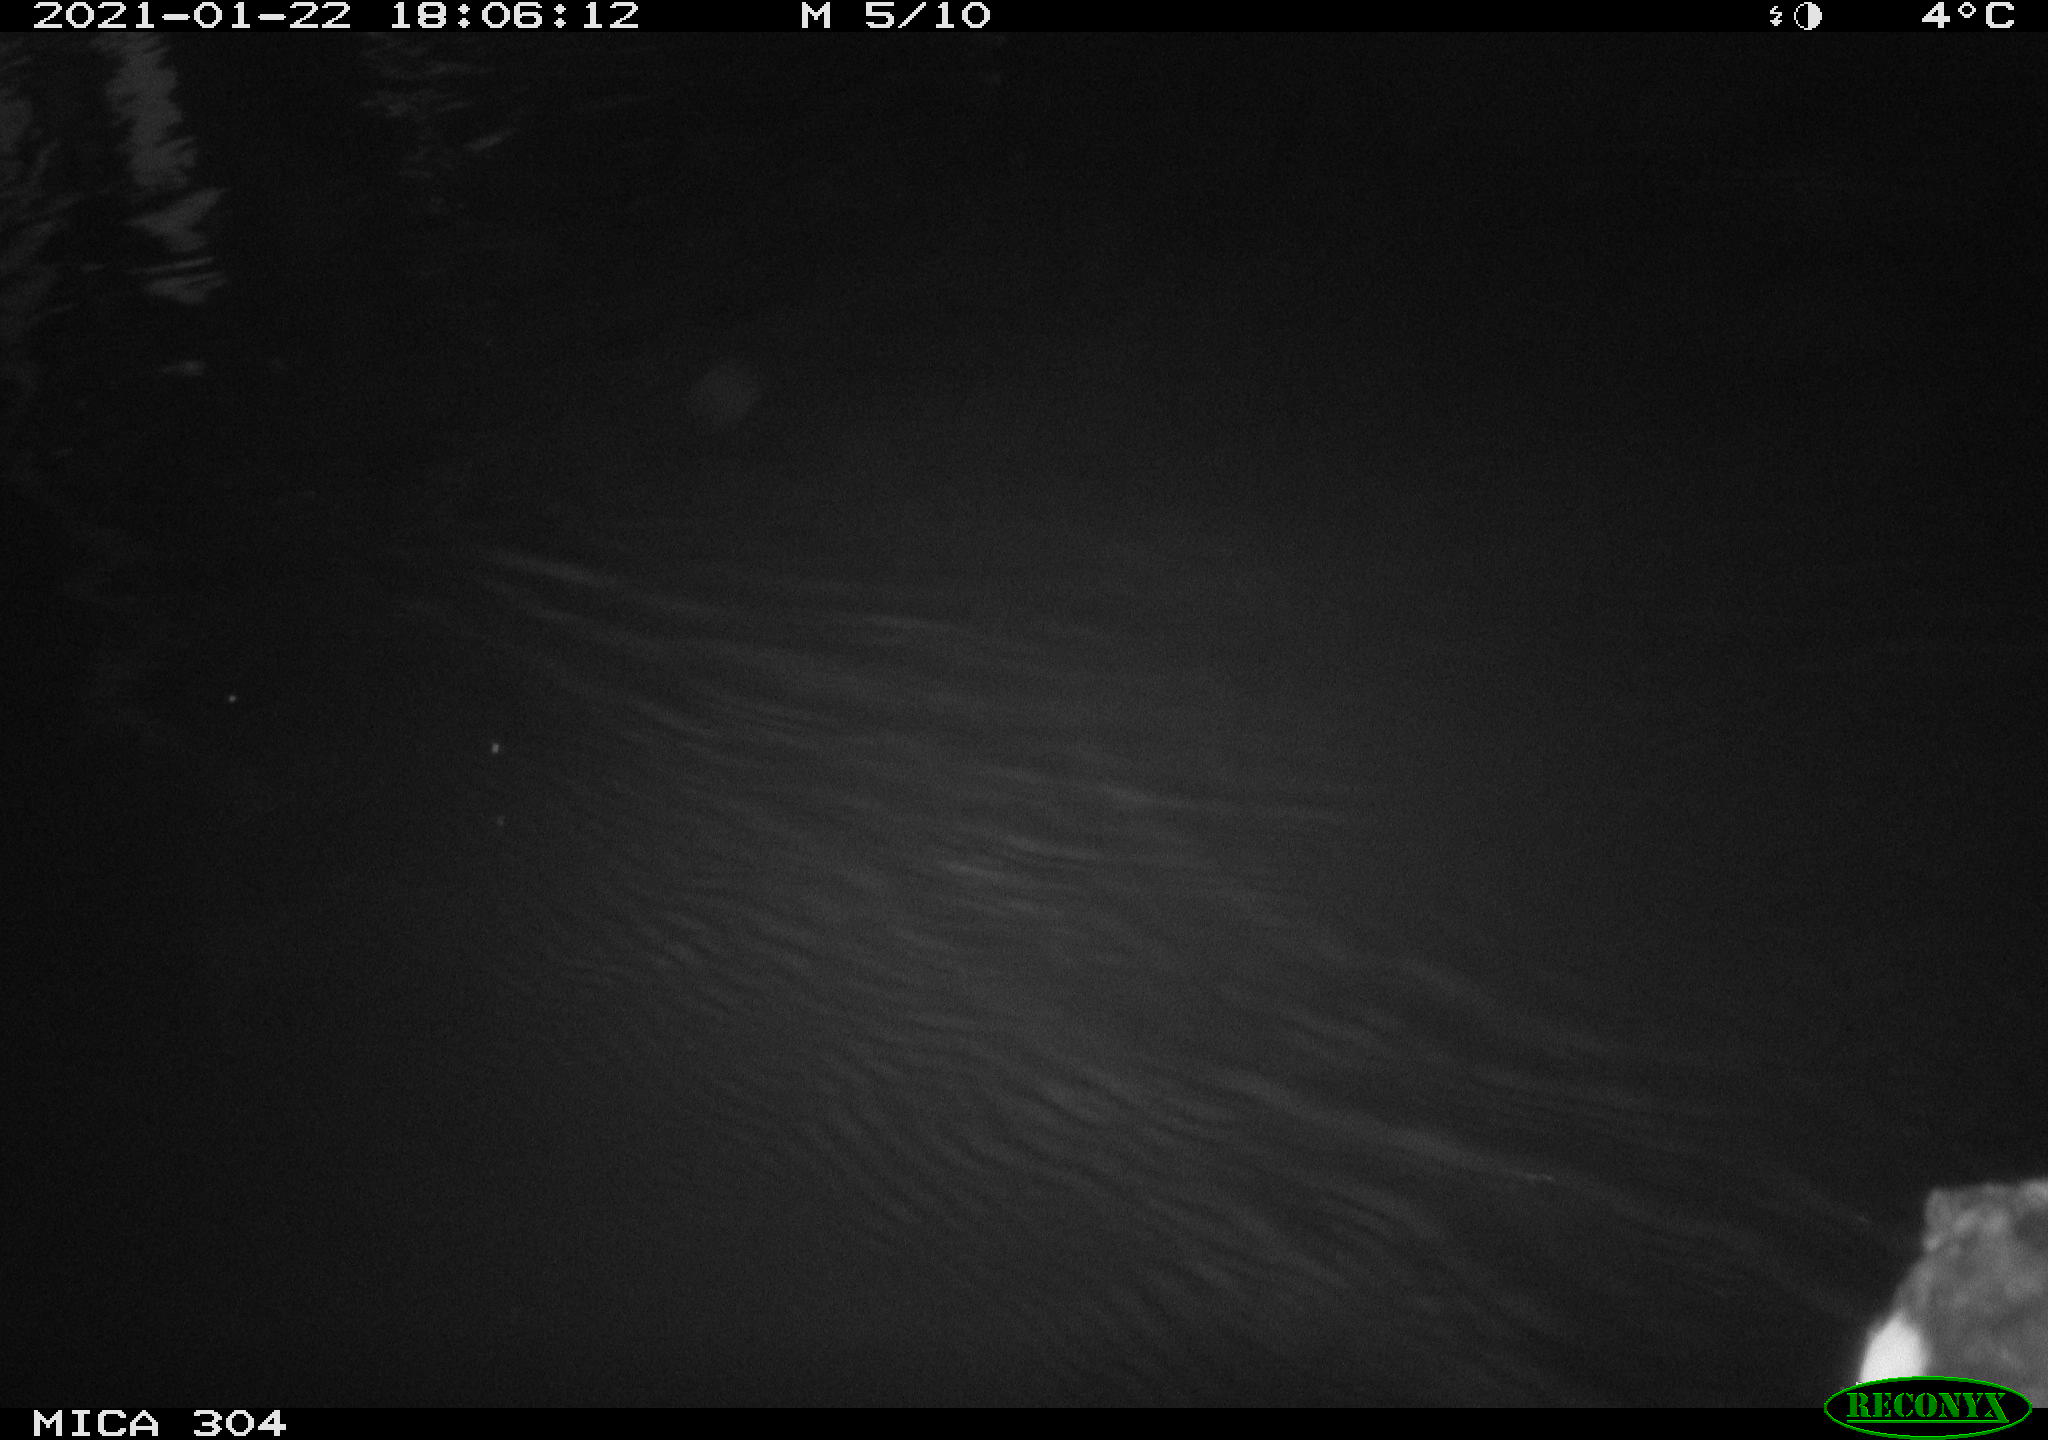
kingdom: Animalia
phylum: Chordata
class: Aves
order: Gruiformes
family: Rallidae
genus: Fulica
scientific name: Fulica atra
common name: Eurasian coot
